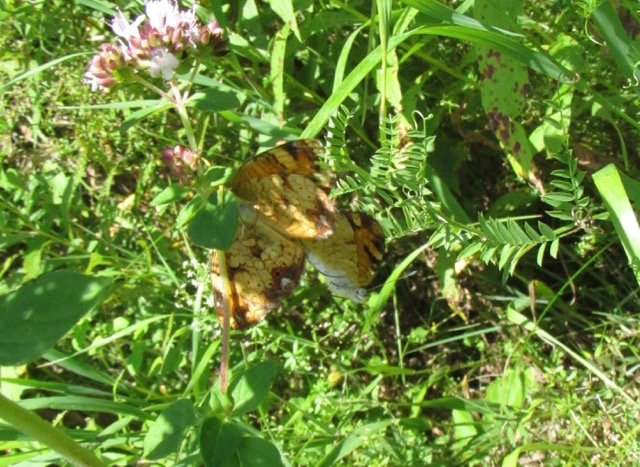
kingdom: Animalia
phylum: Arthropoda
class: Insecta
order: Lepidoptera
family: Nymphalidae
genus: Phyciodes
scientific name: Phyciodes tharos
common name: Pearl Crescent
